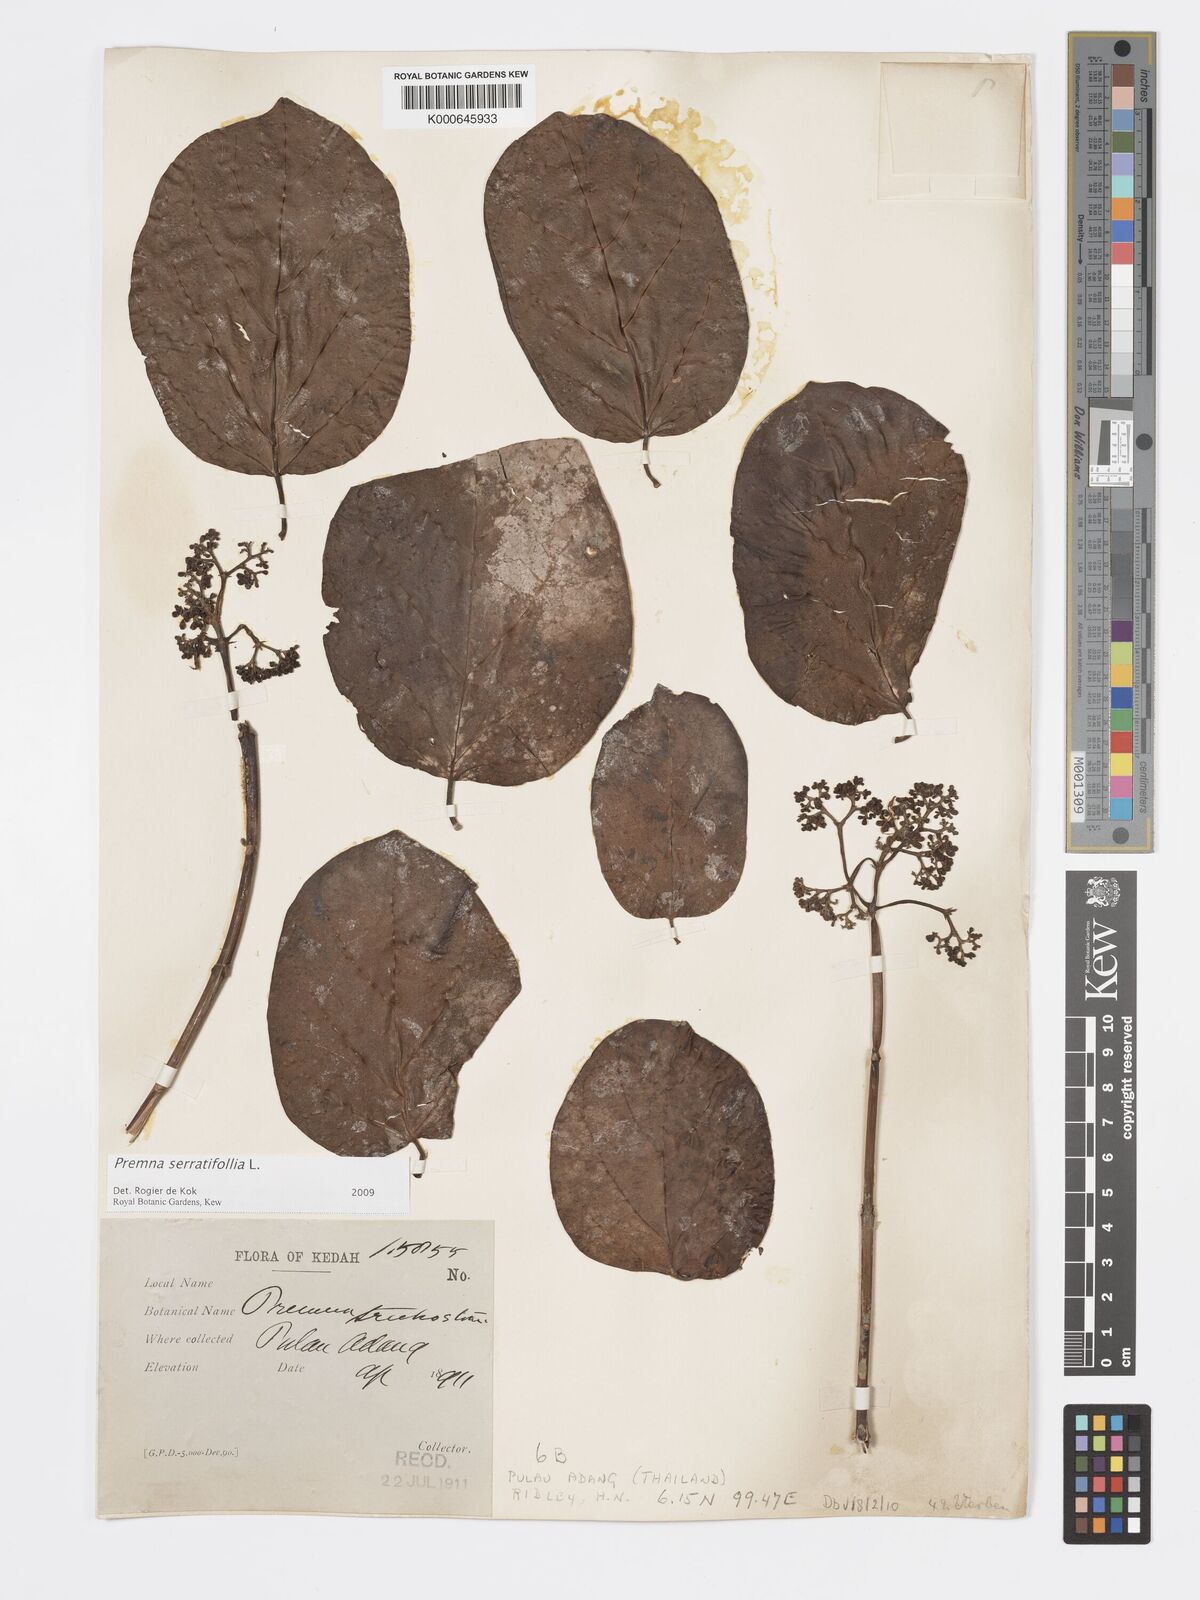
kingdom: Plantae
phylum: Tracheophyta
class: Magnoliopsida
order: Lamiales
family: Lamiaceae
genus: Premna
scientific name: Premna serratifolia
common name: Bastard guelder
